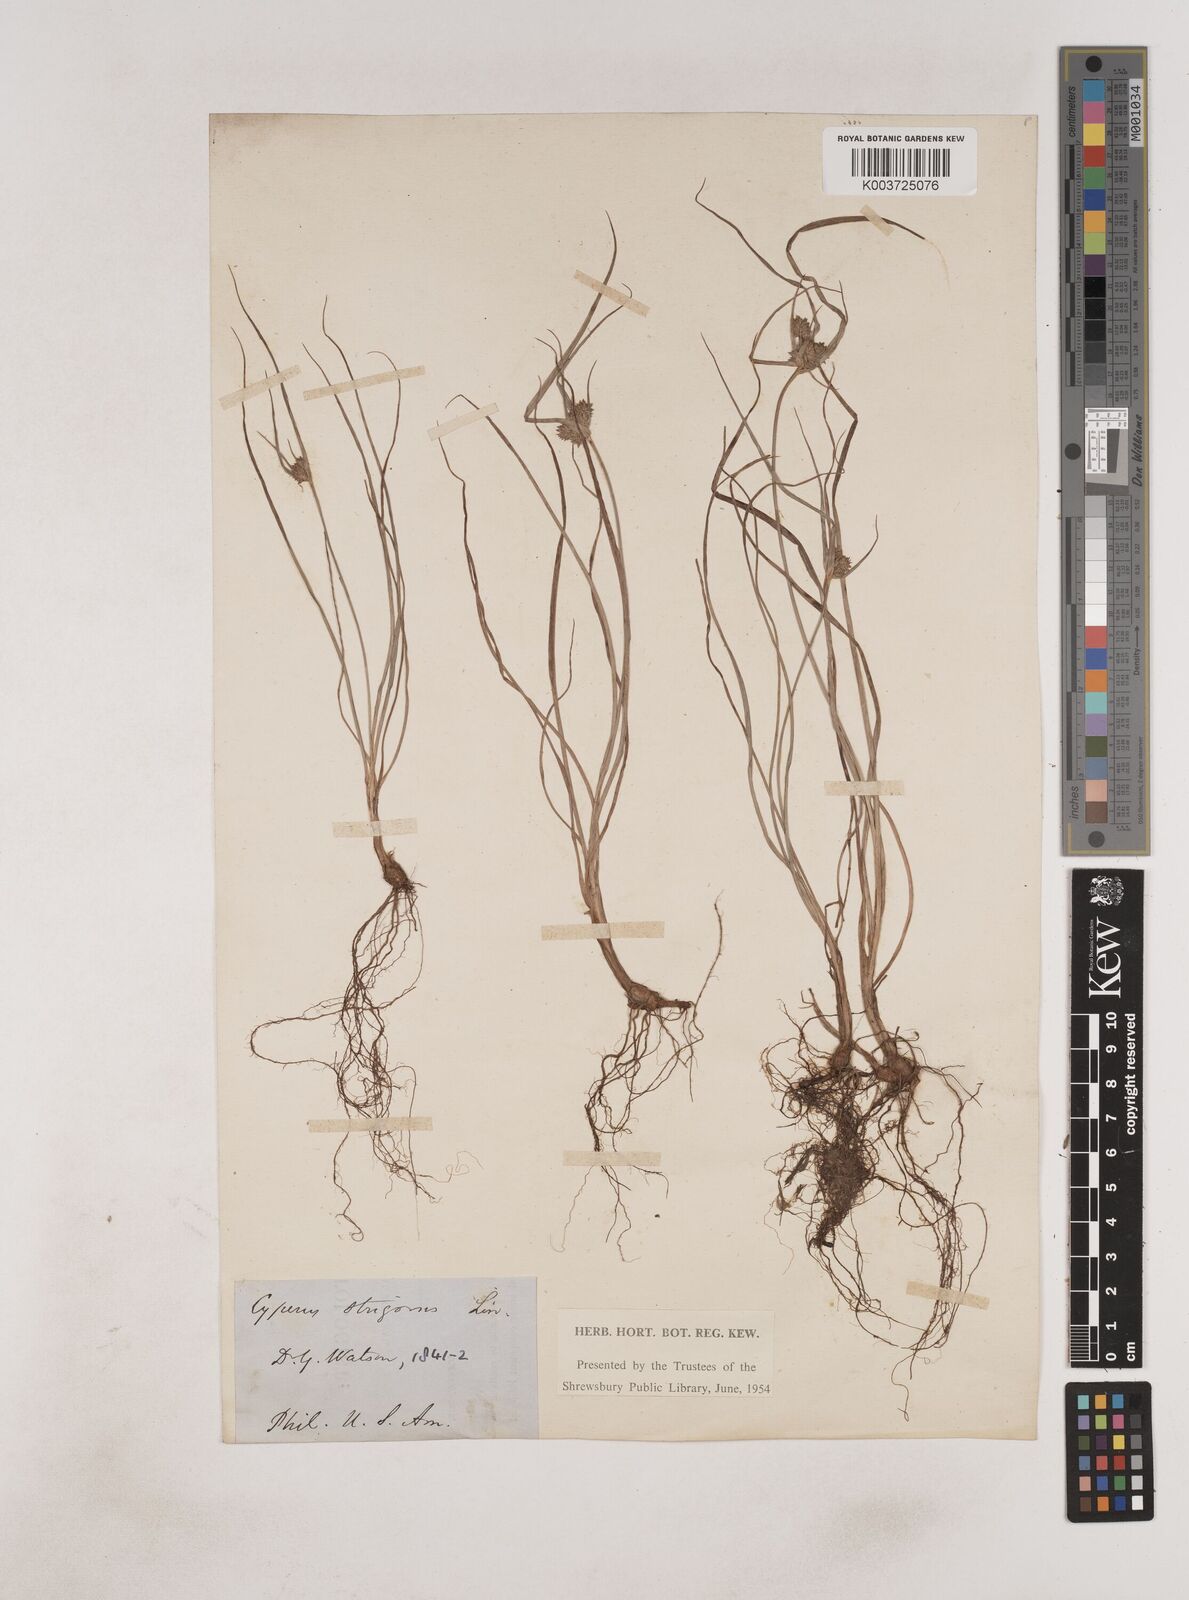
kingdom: Plantae
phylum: Tracheophyta
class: Liliopsida
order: Poales
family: Cyperaceae
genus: Cyperus
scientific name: Cyperus strigosus
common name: False nutsedge
